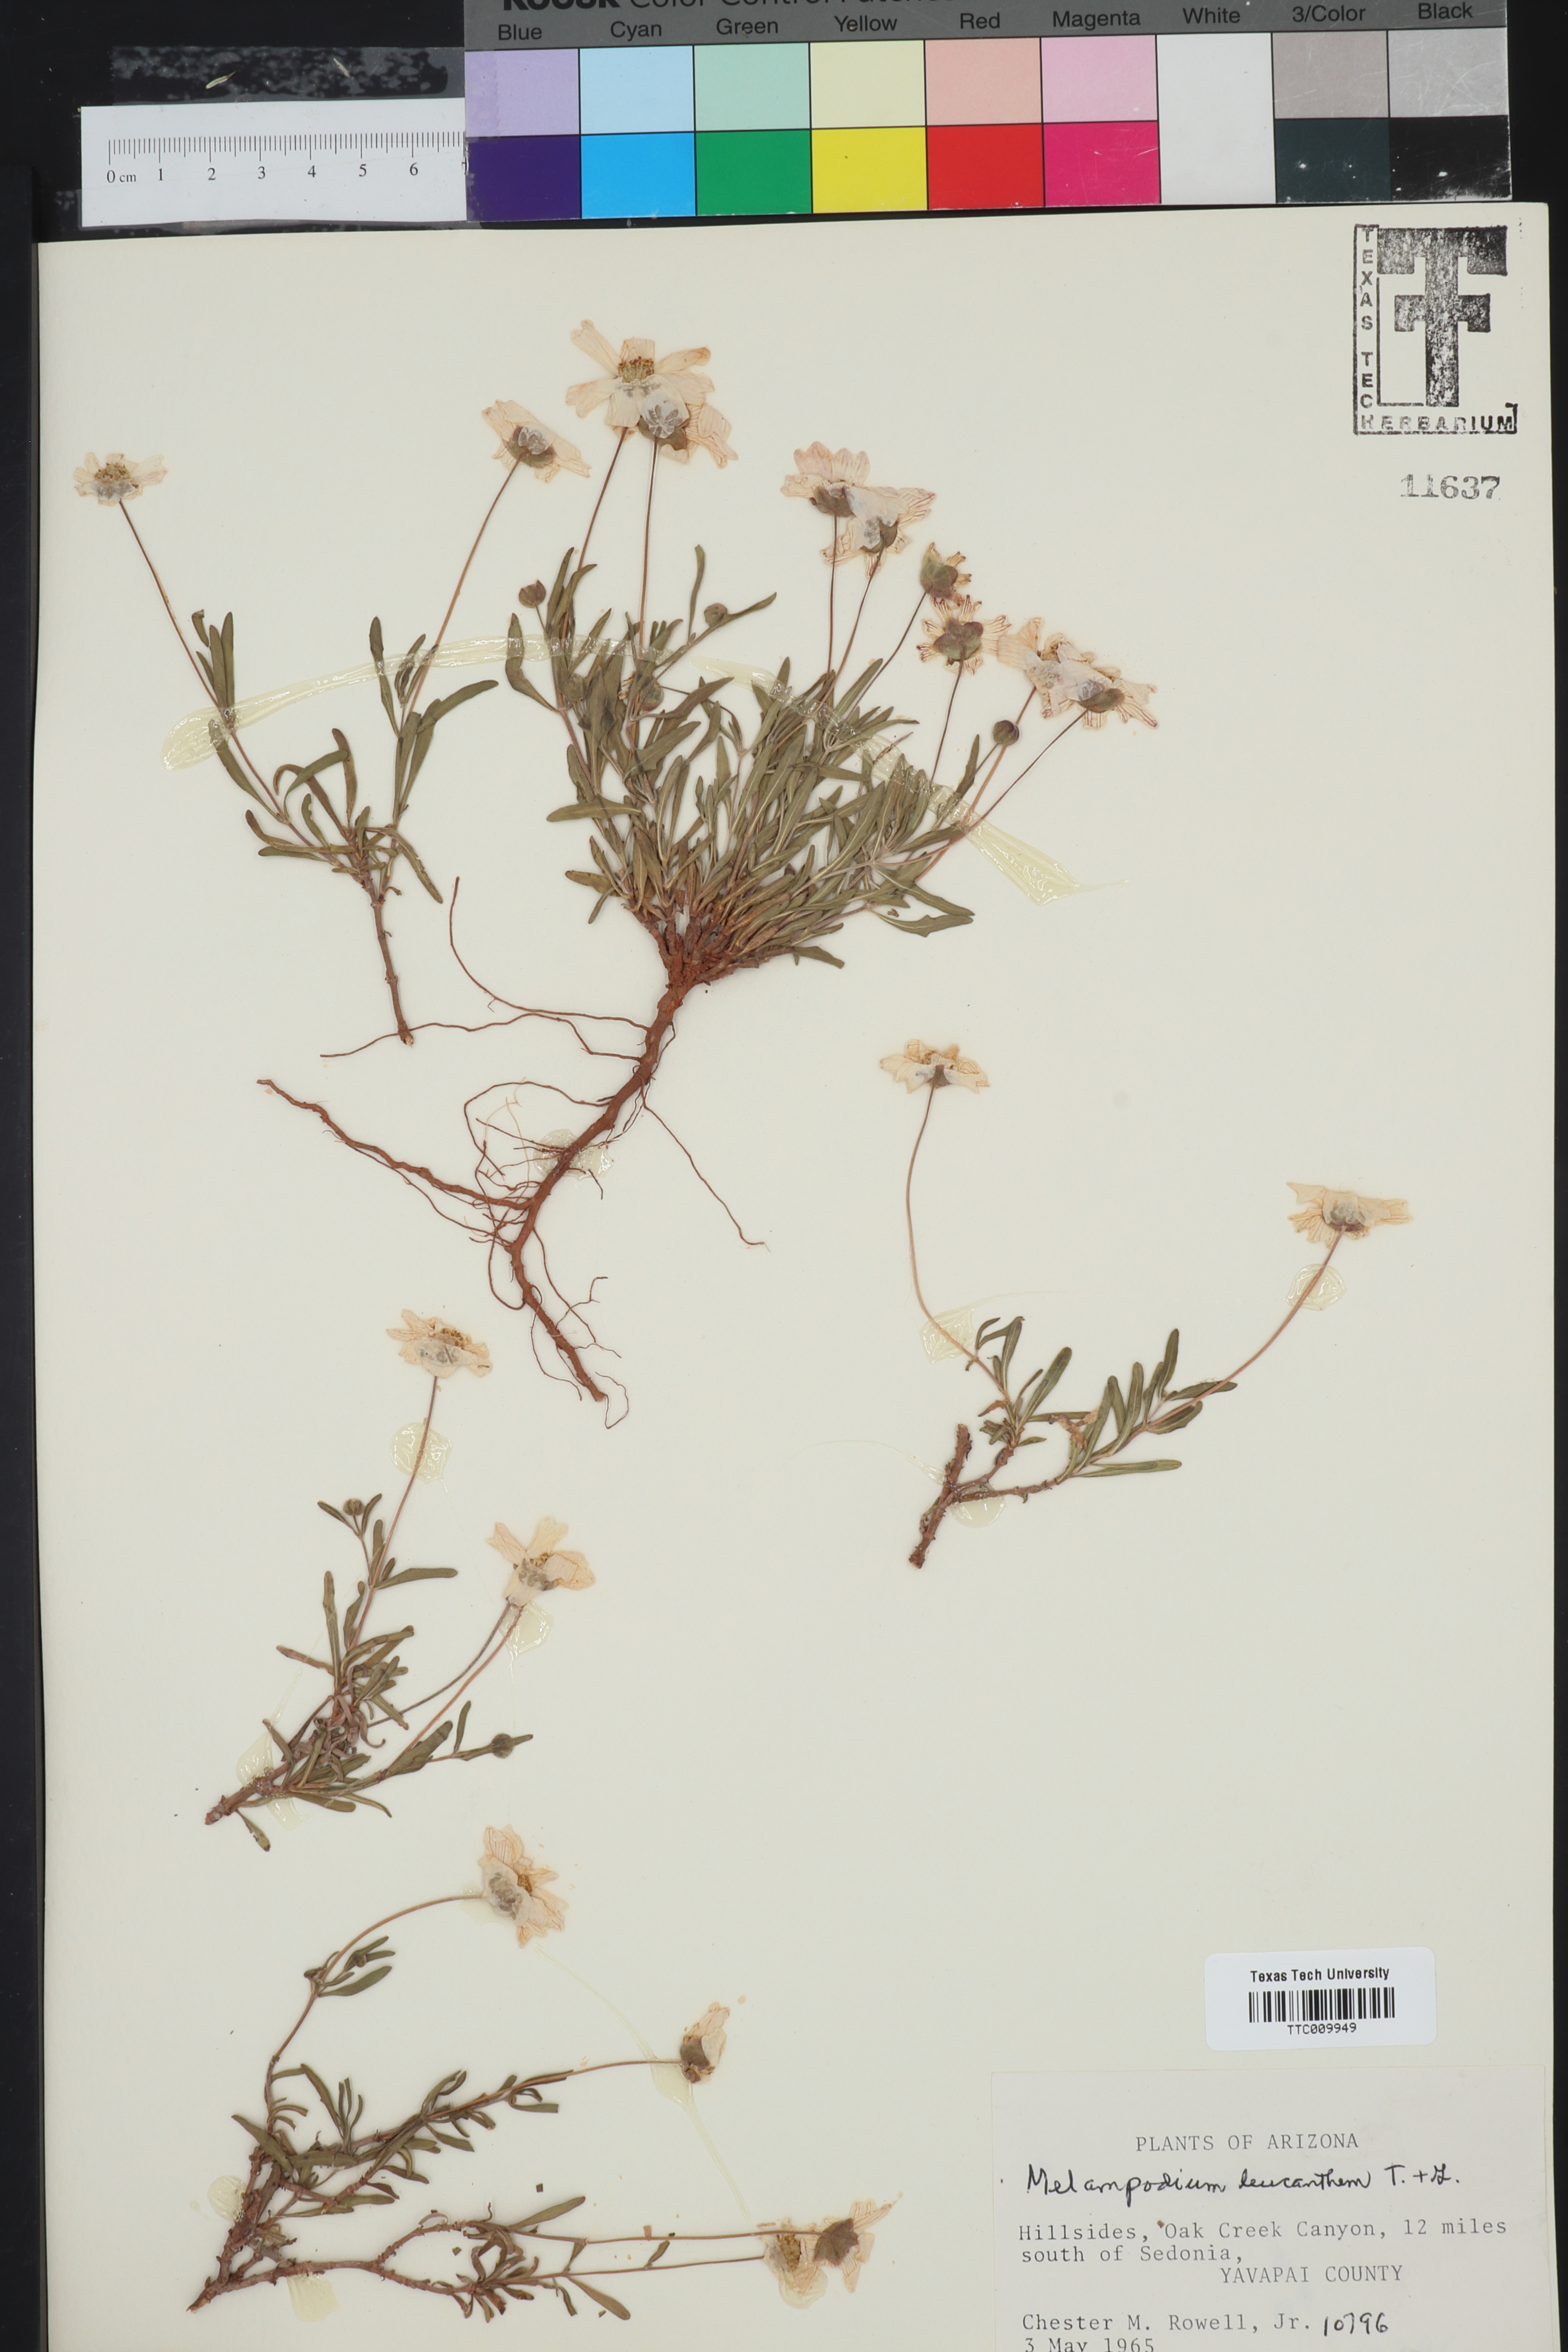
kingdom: Plantae
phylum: Tracheophyta
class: Magnoliopsida
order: Asterales
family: Asteraceae
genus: Melampodium
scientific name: Melampodium leucanthum
